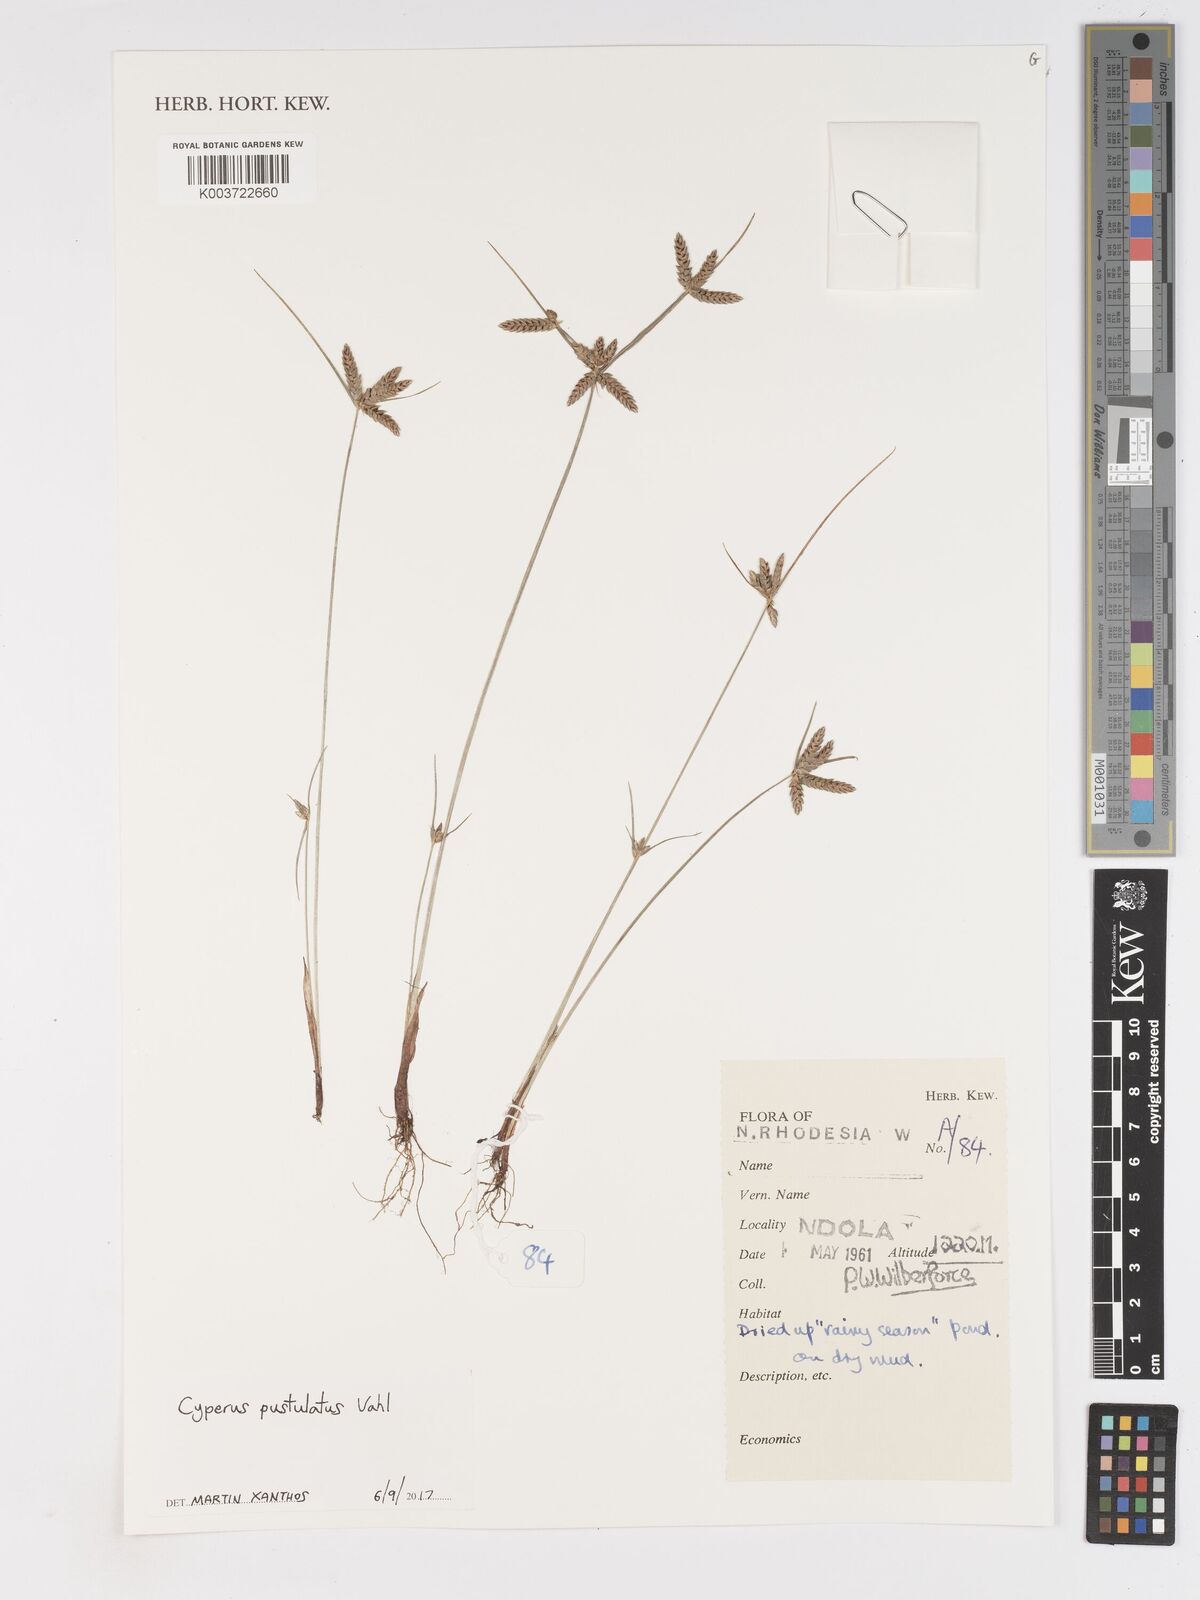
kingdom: Plantae
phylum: Tracheophyta
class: Liliopsida
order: Poales
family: Cyperaceae
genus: Cyperus
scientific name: Cyperus pustulatus
